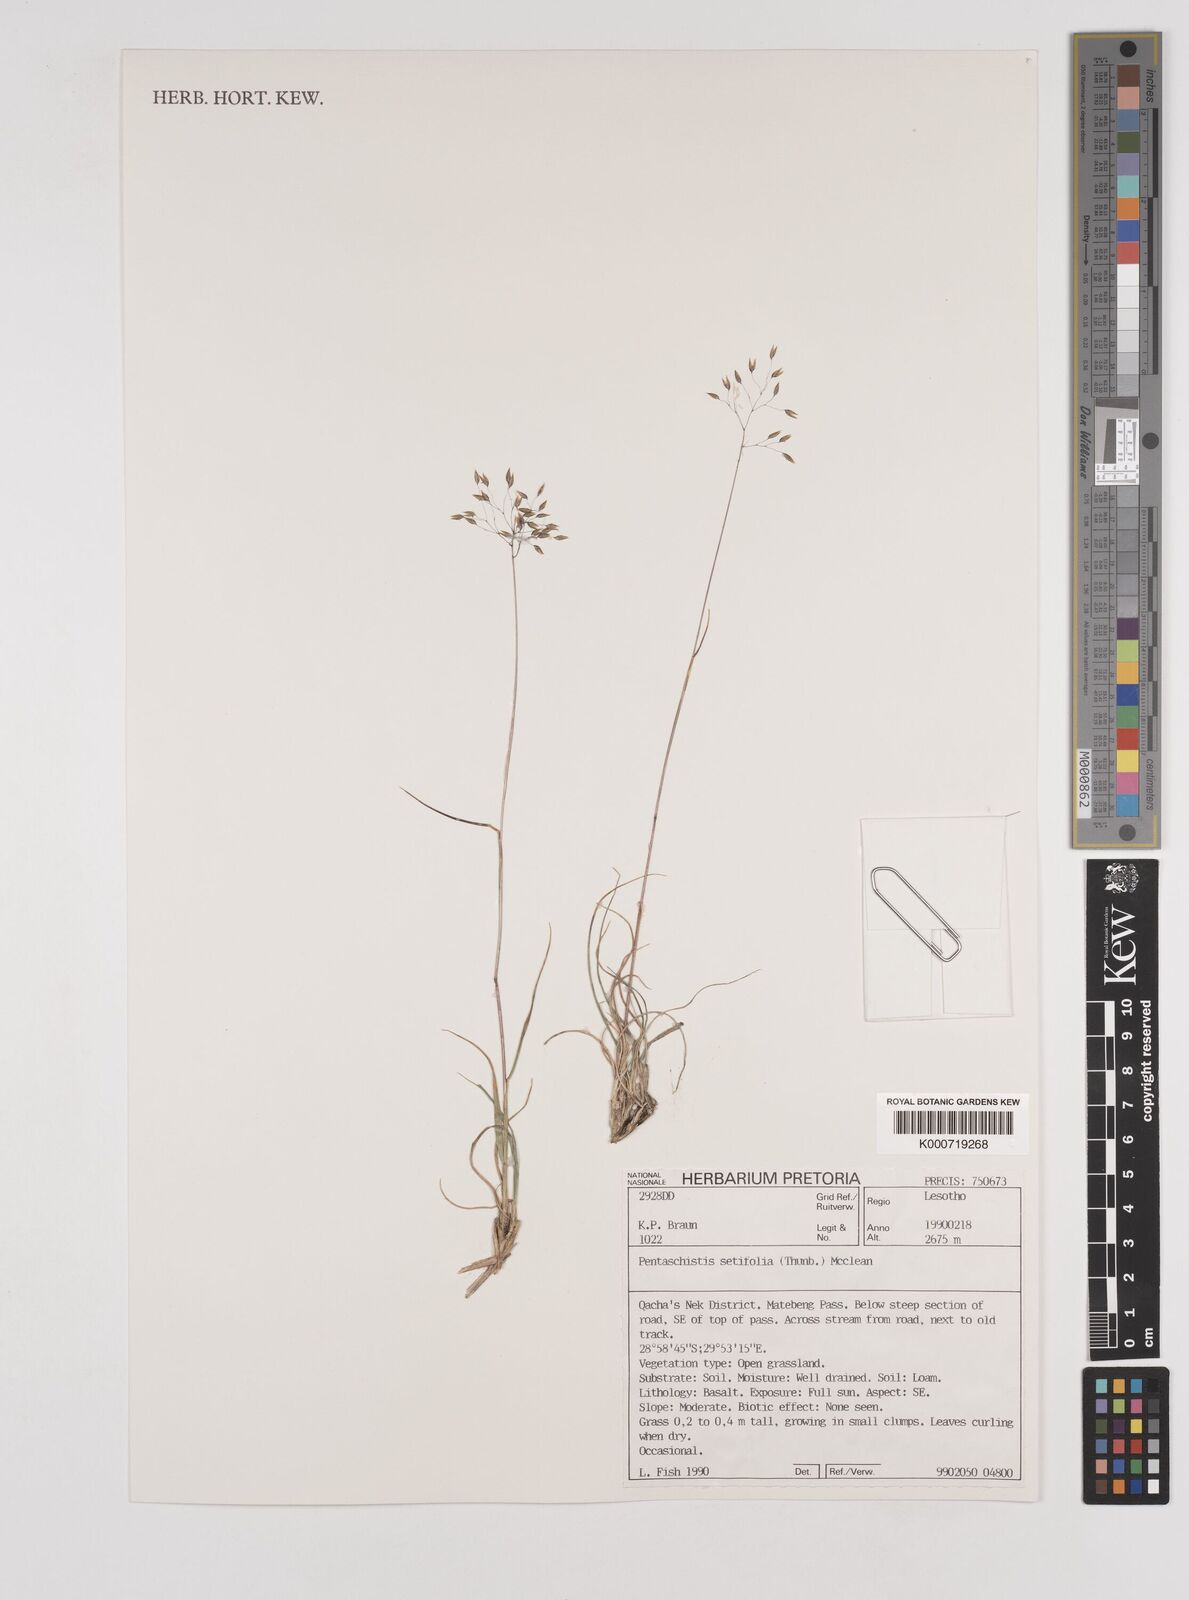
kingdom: Plantae
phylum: Tracheophyta
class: Liliopsida
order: Poales
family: Poaceae
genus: Pentameris
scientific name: Pentameris setifolia
